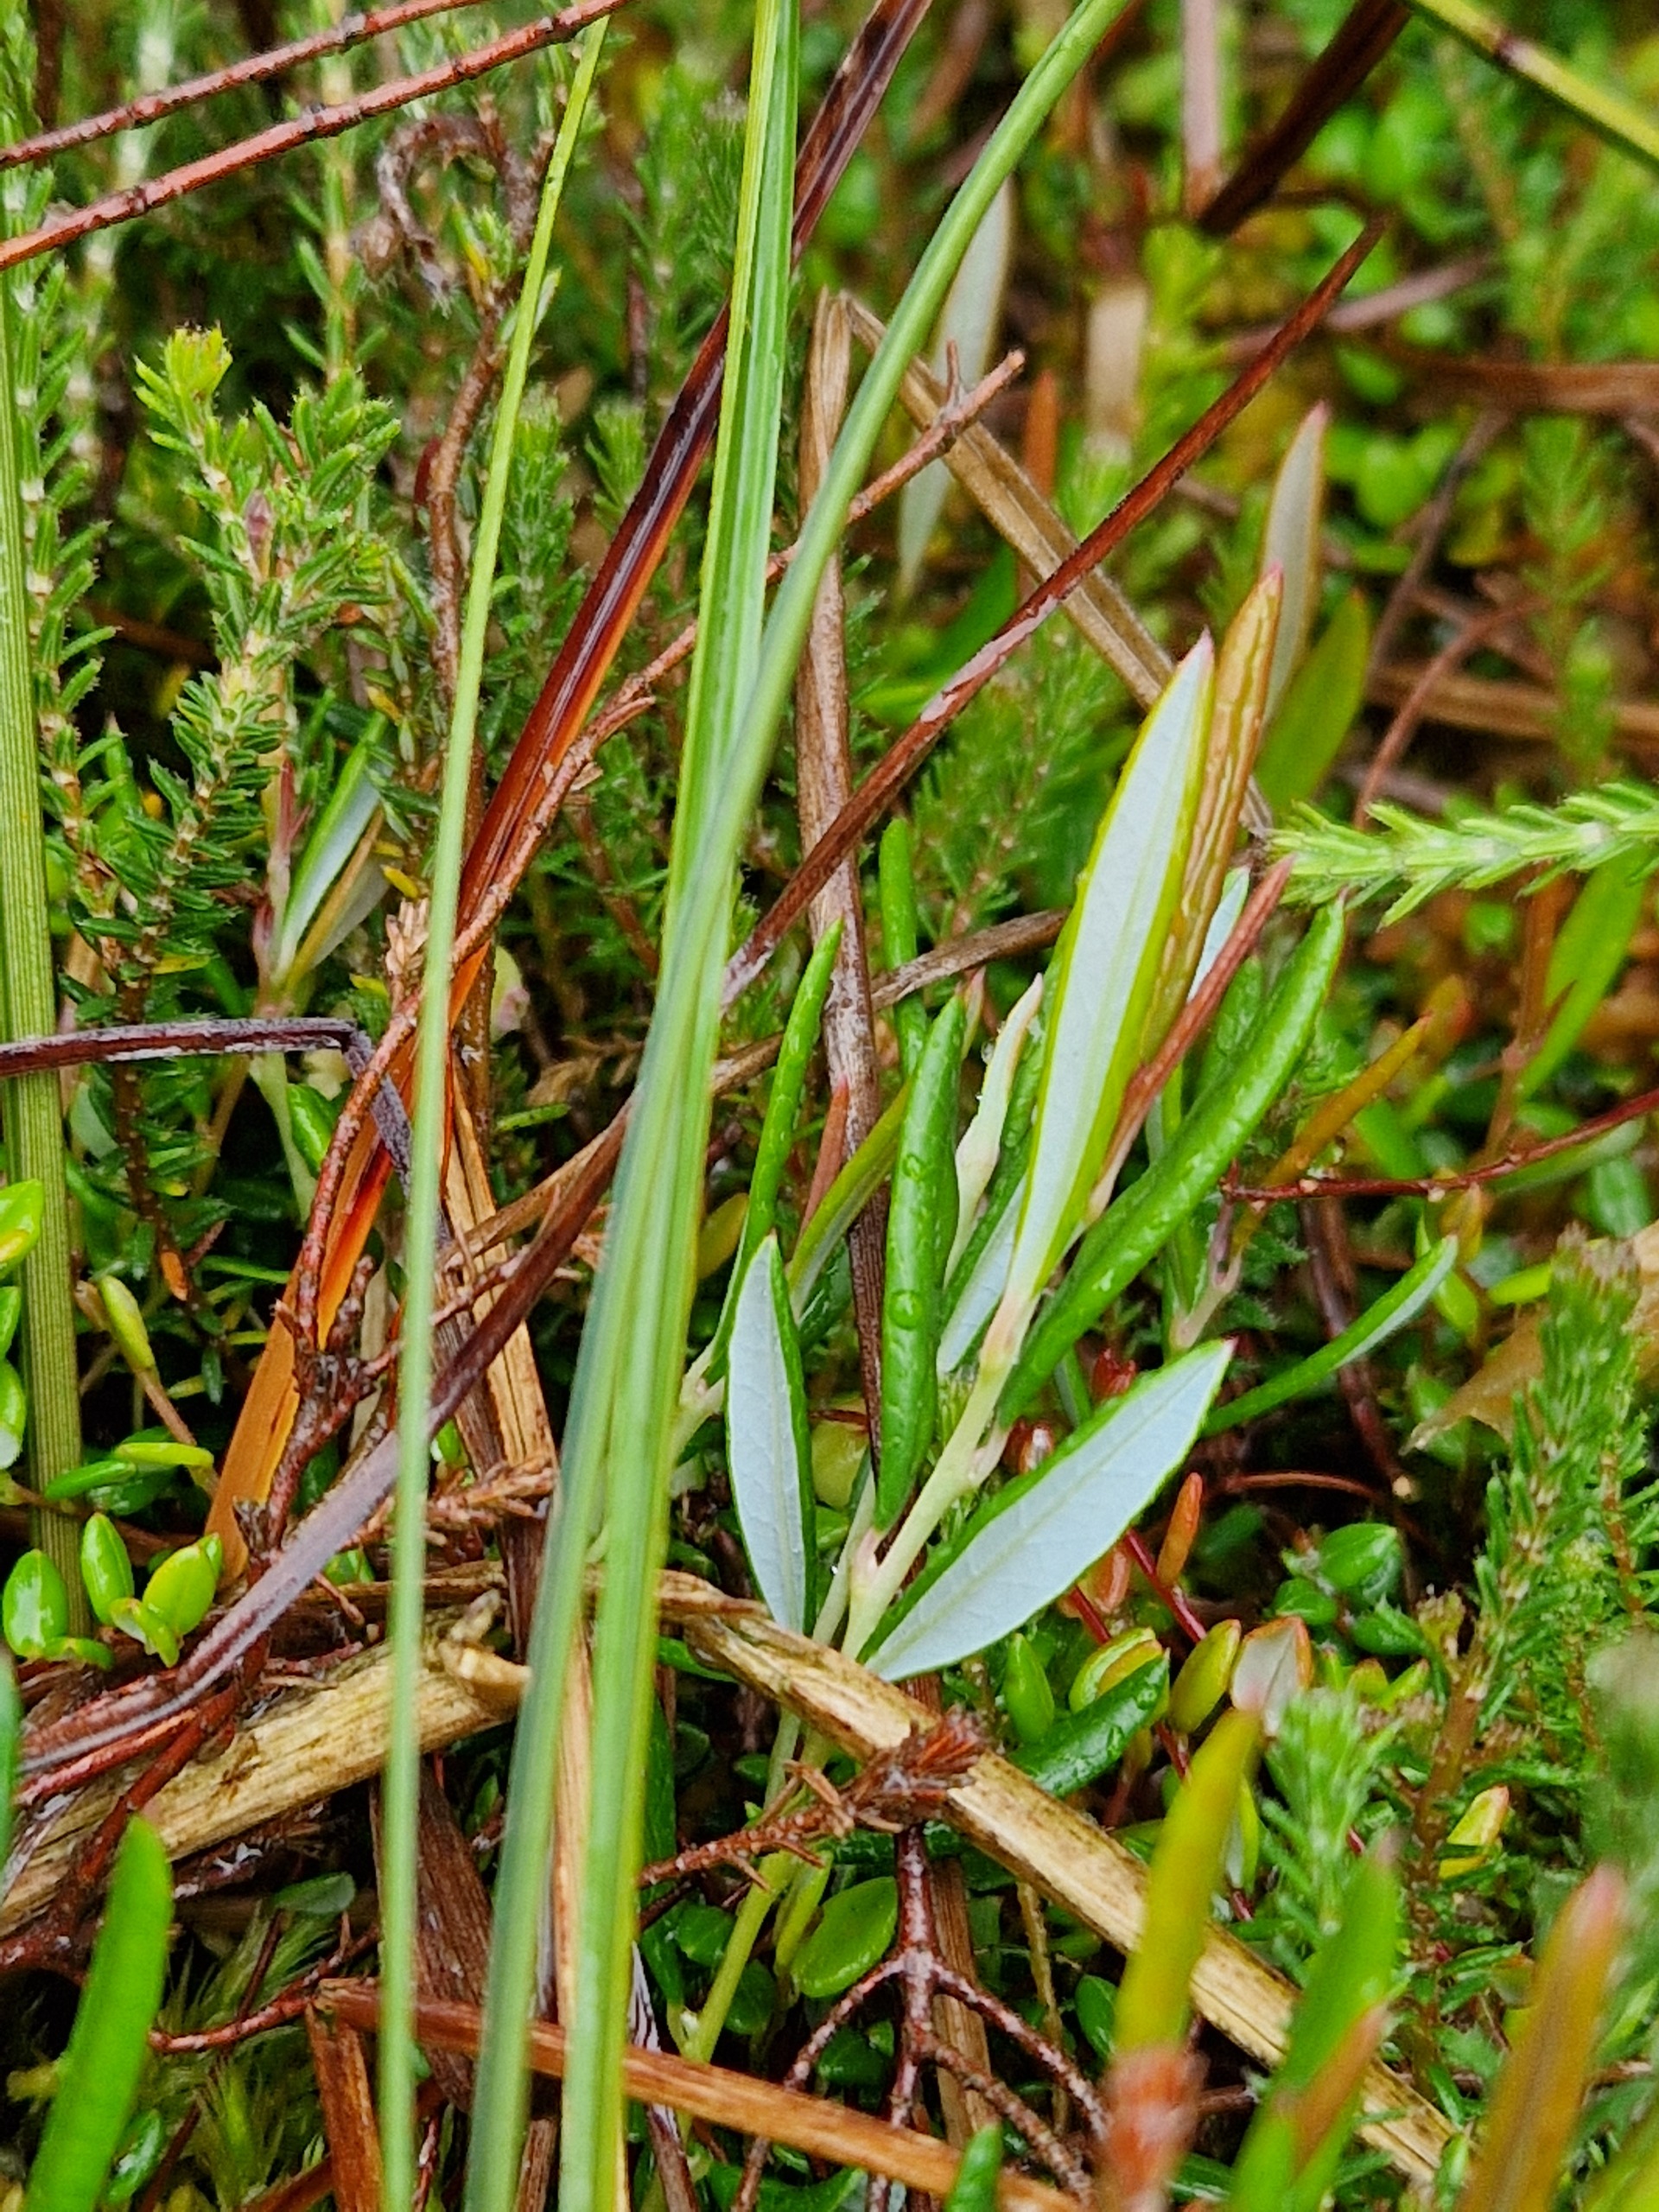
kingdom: Plantae
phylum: Tracheophyta
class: Magnoliopsida
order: Ericales
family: Ericaceae
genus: Andromeda
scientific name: Andromeda polifolia
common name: Rosmarinlyng
